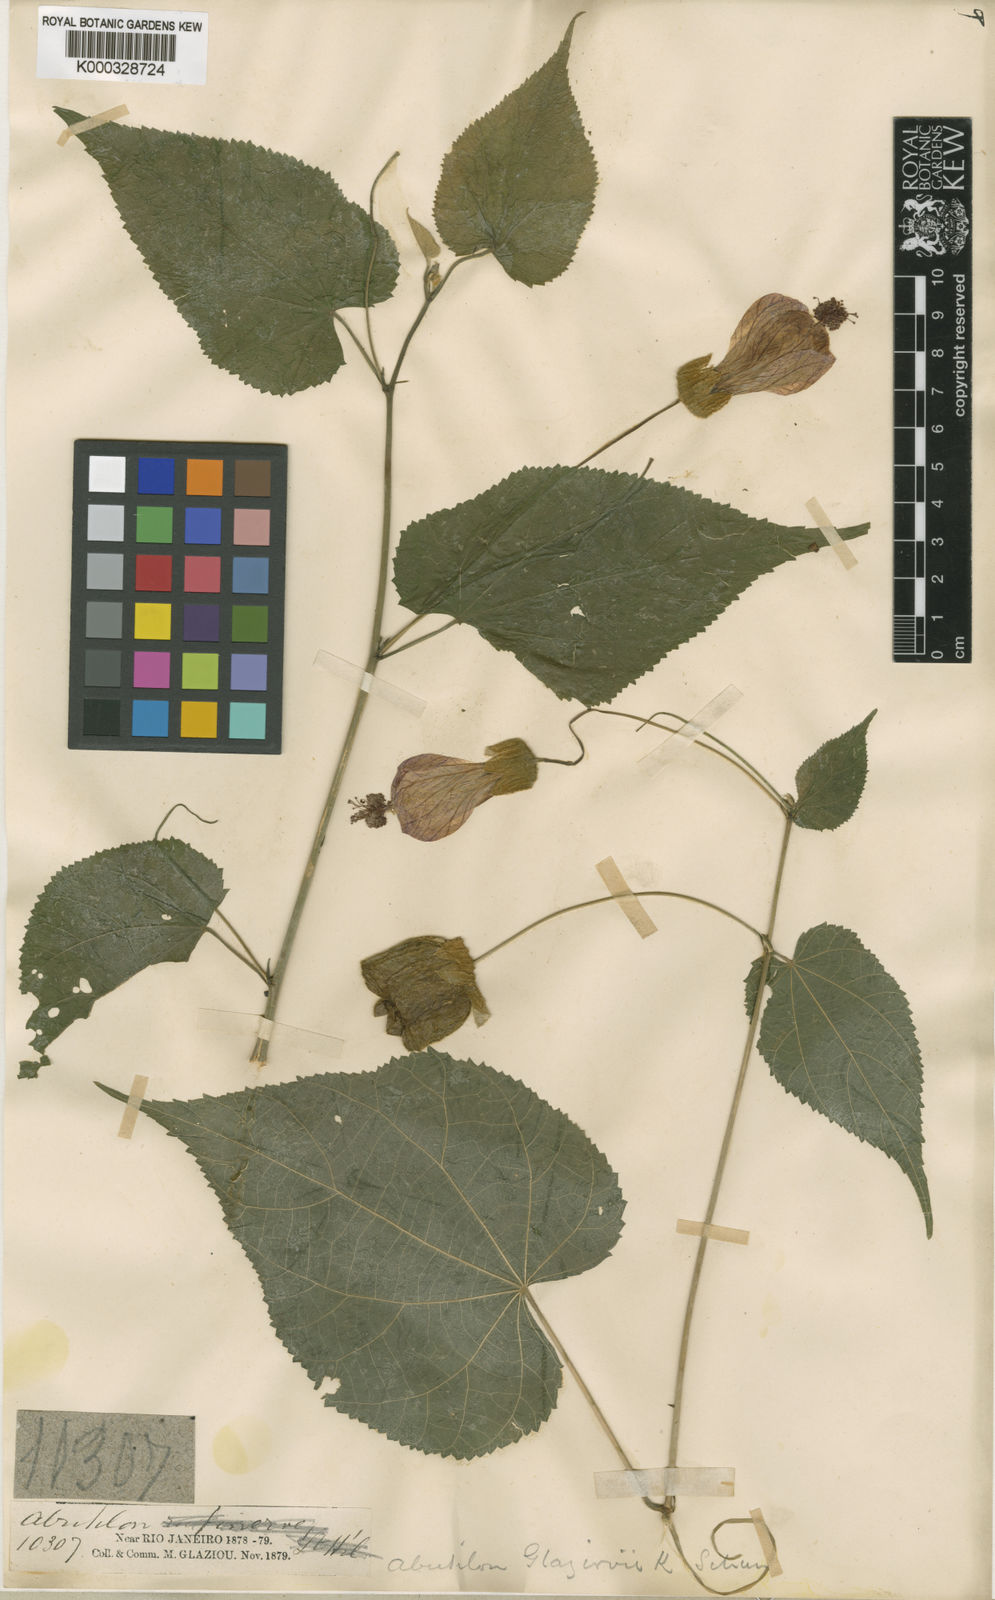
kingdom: Plantae
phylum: Tracheophyta
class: Magnoliopsida
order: Malvales
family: Malvaceae
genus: Callianthe
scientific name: Callianthe glaziovii
